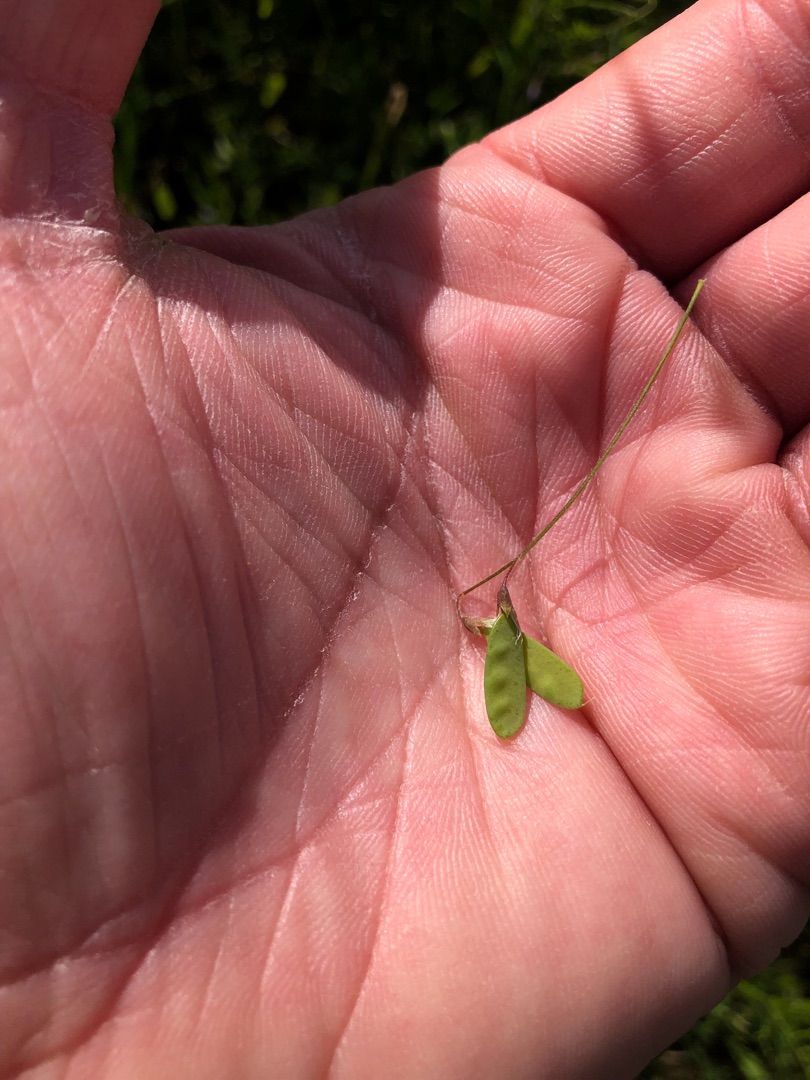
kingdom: Plantae
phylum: Tracheophyta
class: Magnoliopsida
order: Fabales
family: Fabaceae
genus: Vicia
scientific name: Vicia tetrasperma
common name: Tadder-vikke
